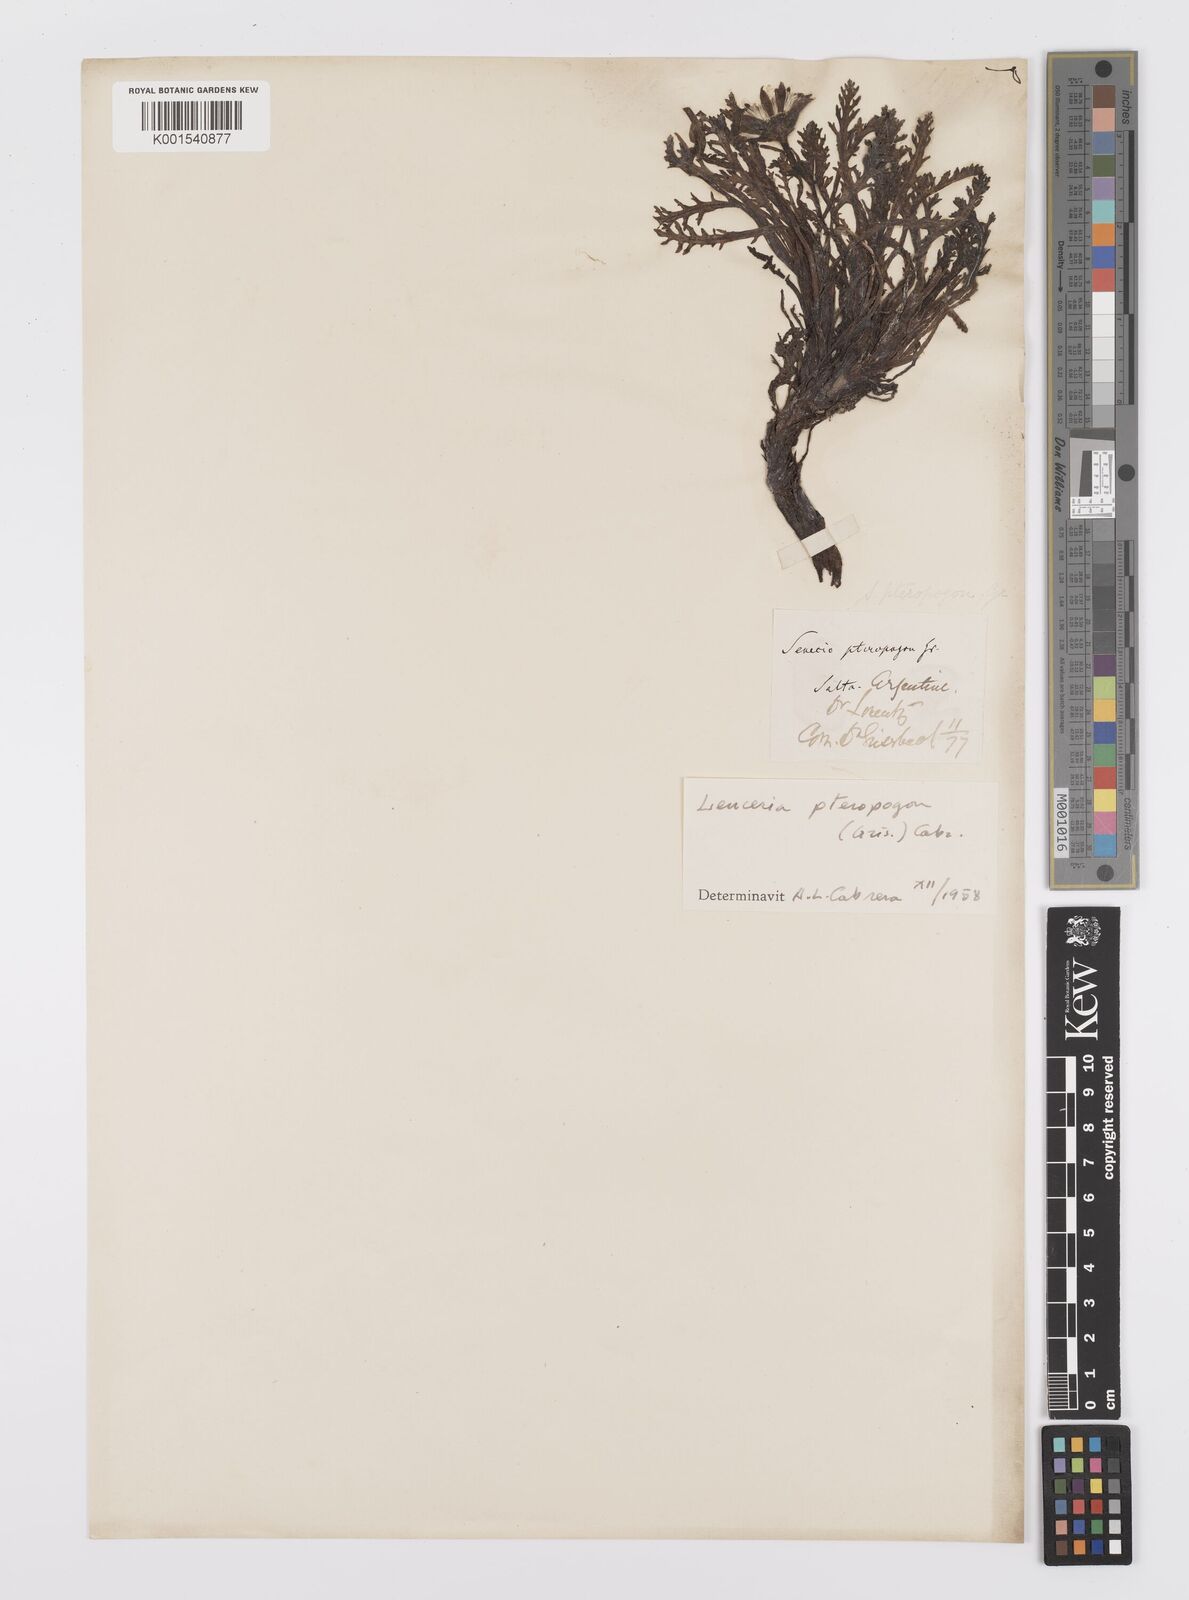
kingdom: Plantae
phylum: Tracheophyta
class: Magnoliopsida
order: Asterales
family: Asteraceae
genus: Leucheria
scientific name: Leucheria pteropogon
